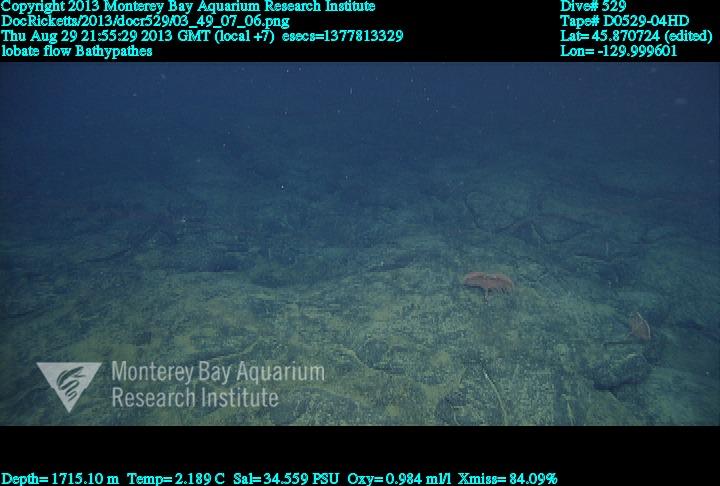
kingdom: Animalia
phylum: Cnidaria
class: Anthozoa
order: Antipatharia
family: Schizopathidae
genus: Bathypathes
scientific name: Bathypathes
